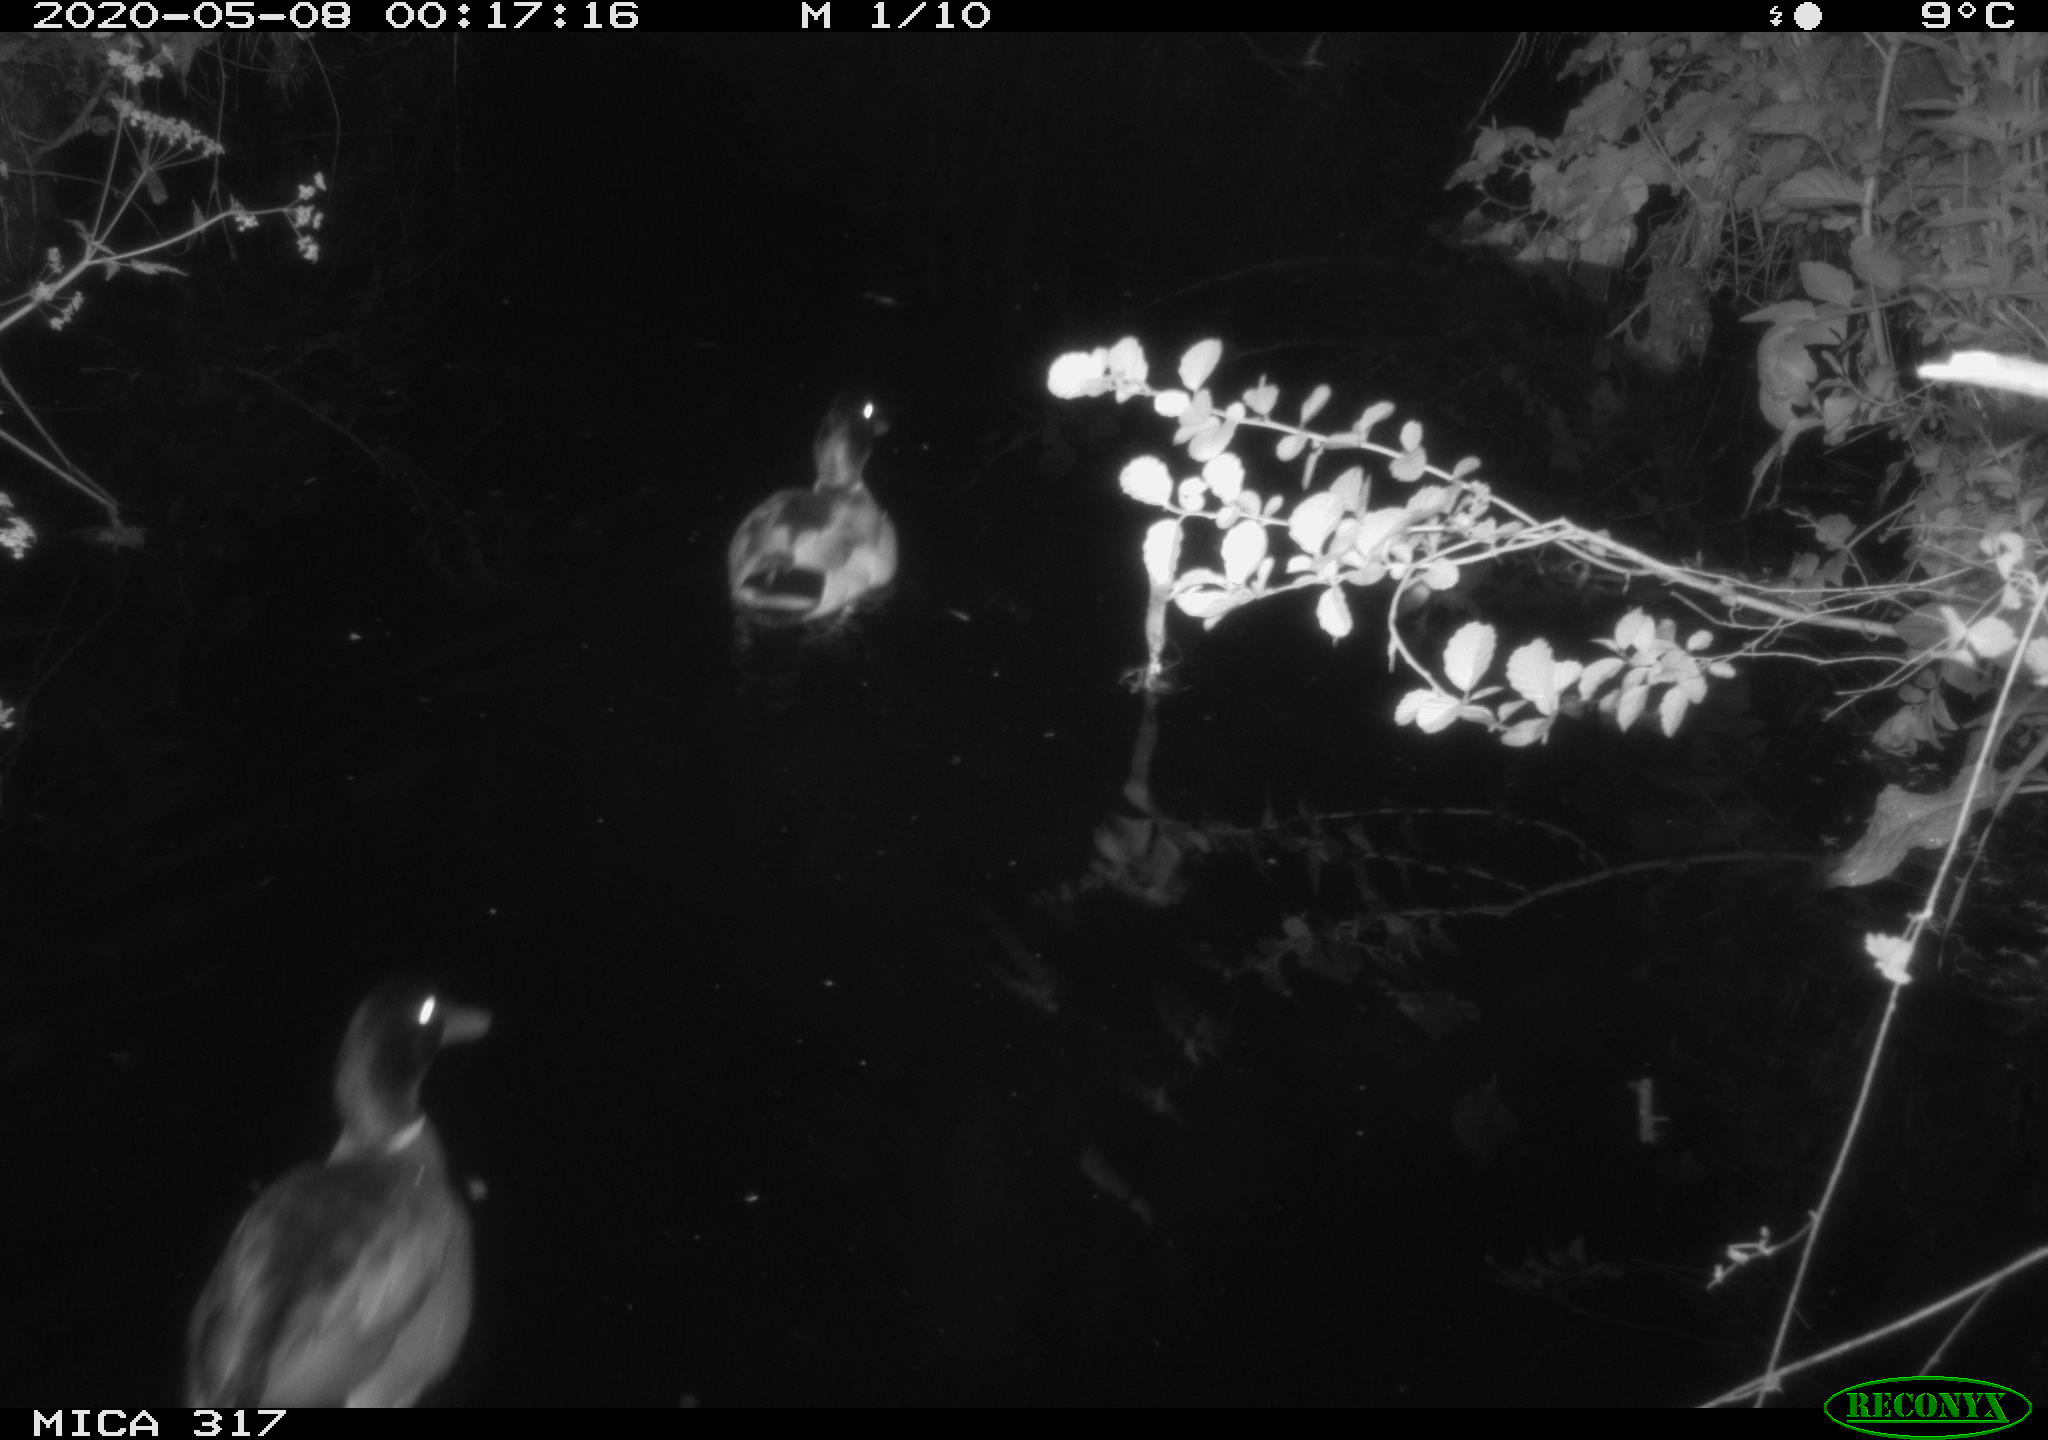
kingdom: Animalia
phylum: Chordata
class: Aves
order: Anseriformes
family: Anatidae
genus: Anas
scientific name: Anas platyrhynchos
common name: Mallard
